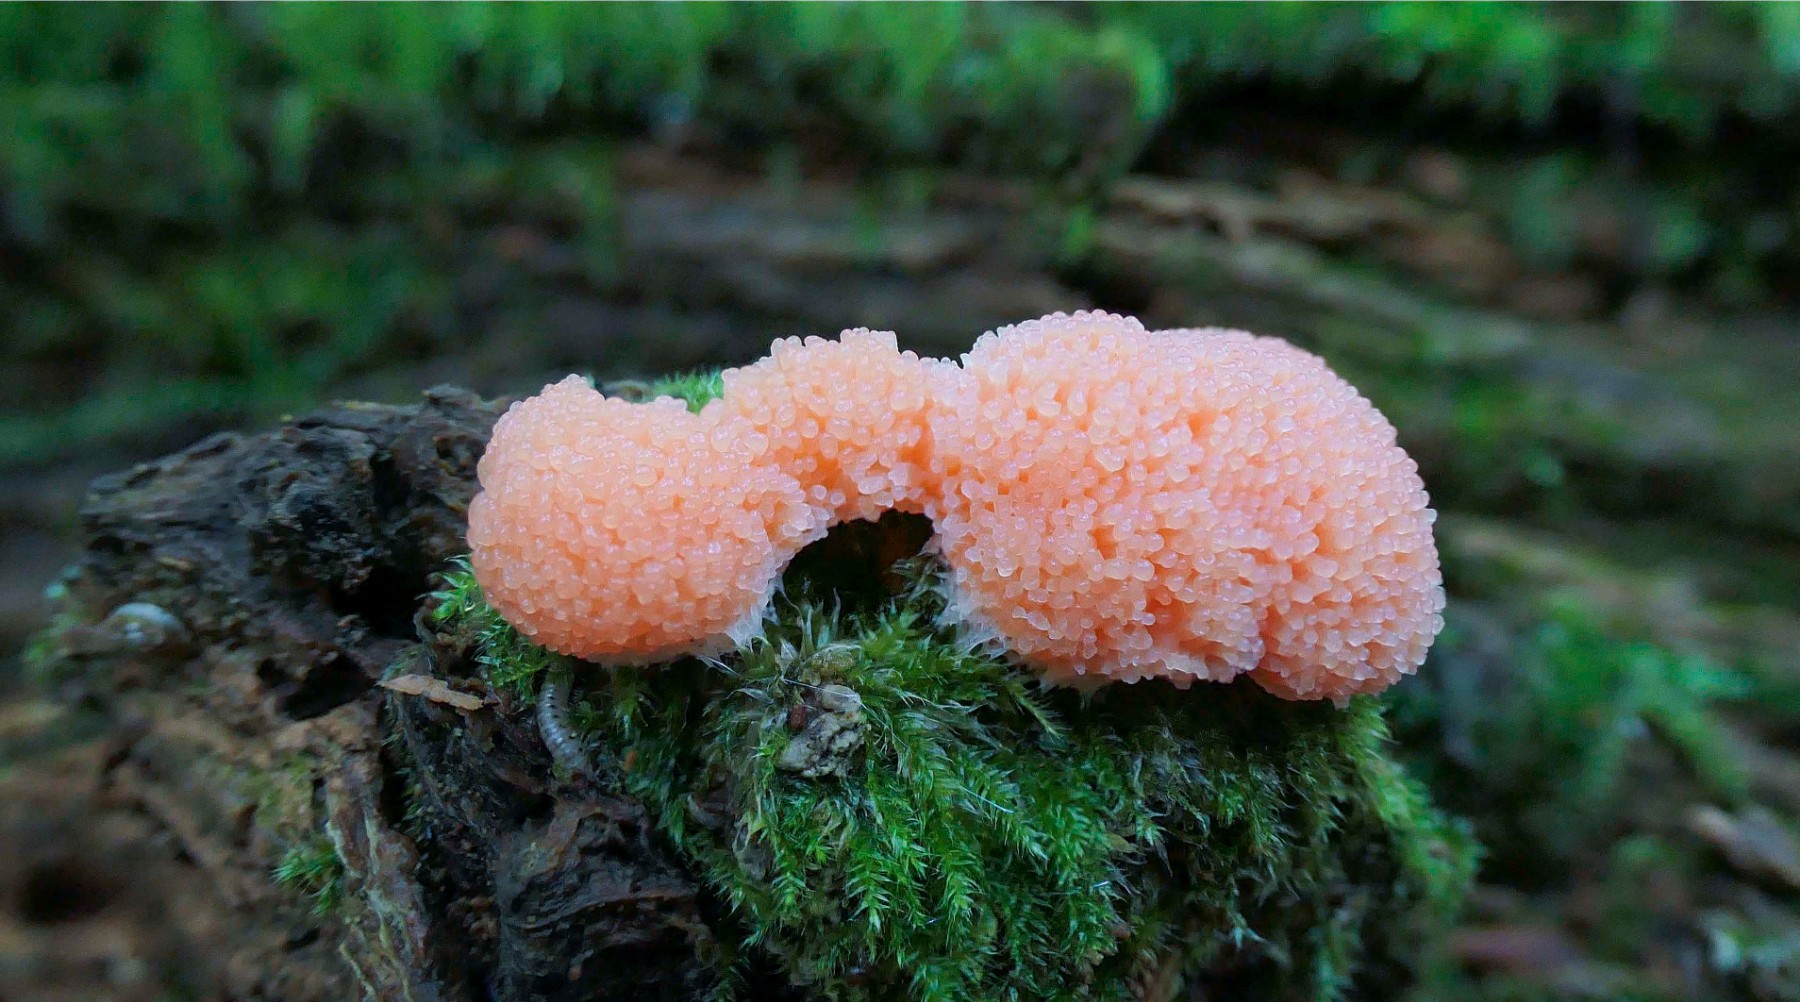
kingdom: Protozoa
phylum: Mycetozoa
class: Myxomycetes
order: Cribrariales
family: Tubiferaceae
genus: Tubifera
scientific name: Tubifera ferruginosa
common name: kanel-støvrør
